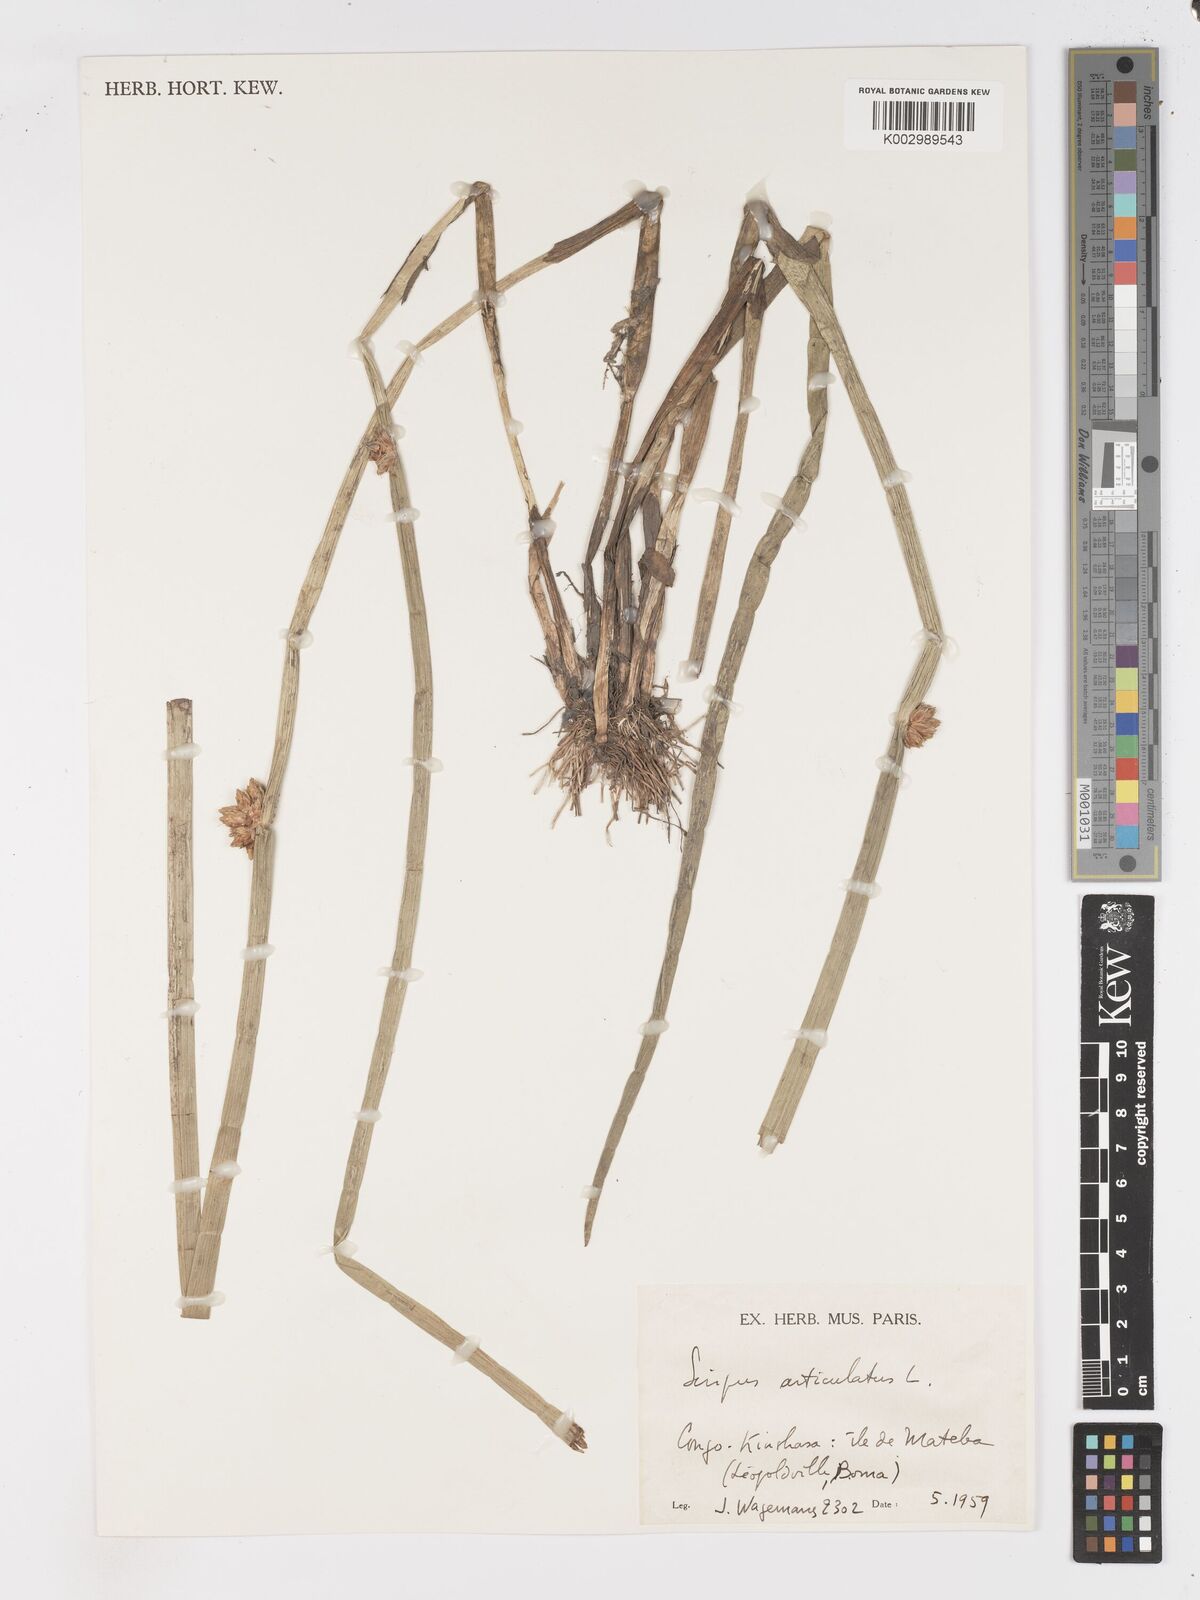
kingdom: Plantae
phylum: Tracheophyta
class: Liliopsida
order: Poales
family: Cyperaceae
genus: Schoenoplectiella
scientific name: Schoenoplectiella articulata
